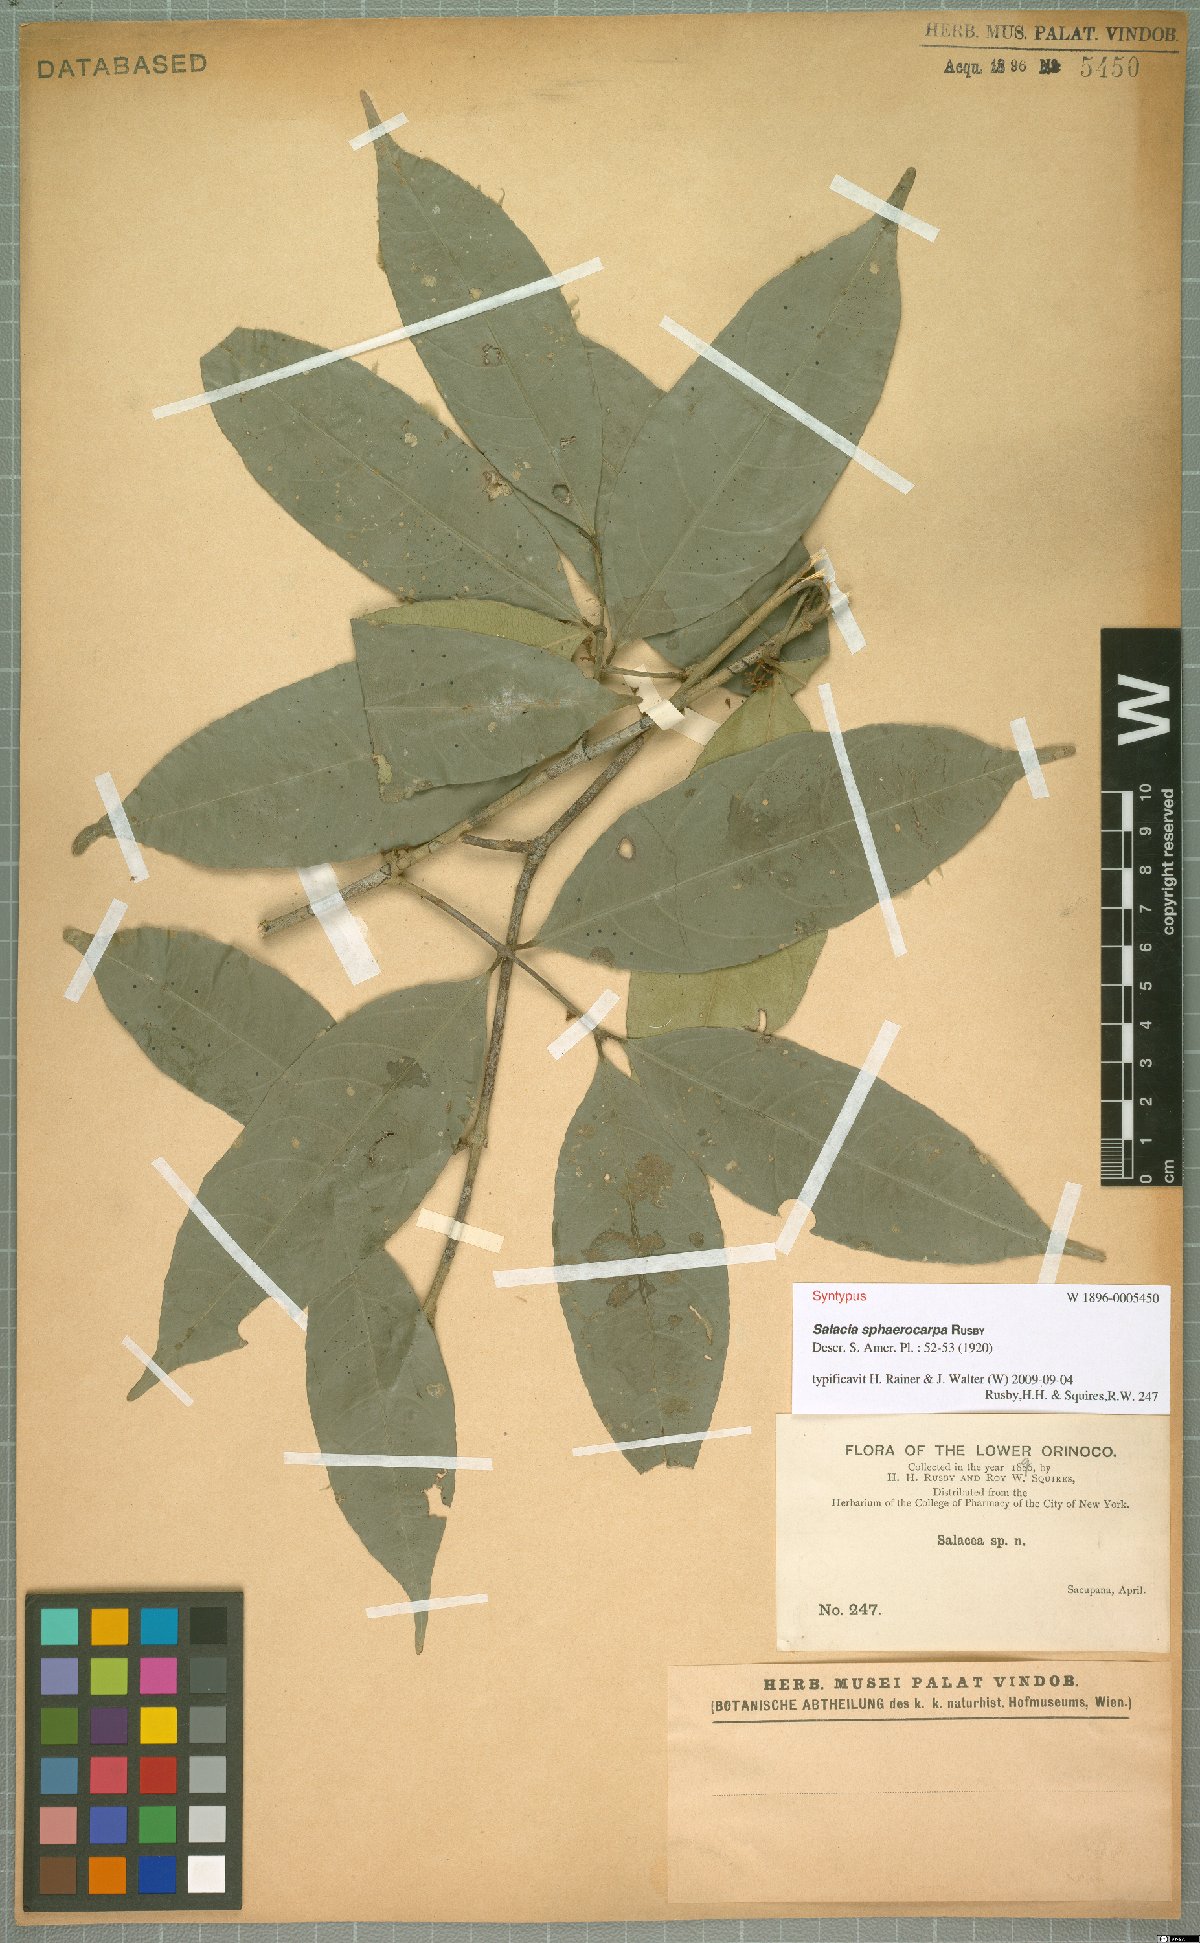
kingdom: Plantae
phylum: Tracheophyta
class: Magnoliopsida
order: Celastrales
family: Celastraceae
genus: Cheiloclinium
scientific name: Cheiloclinium cognatum
